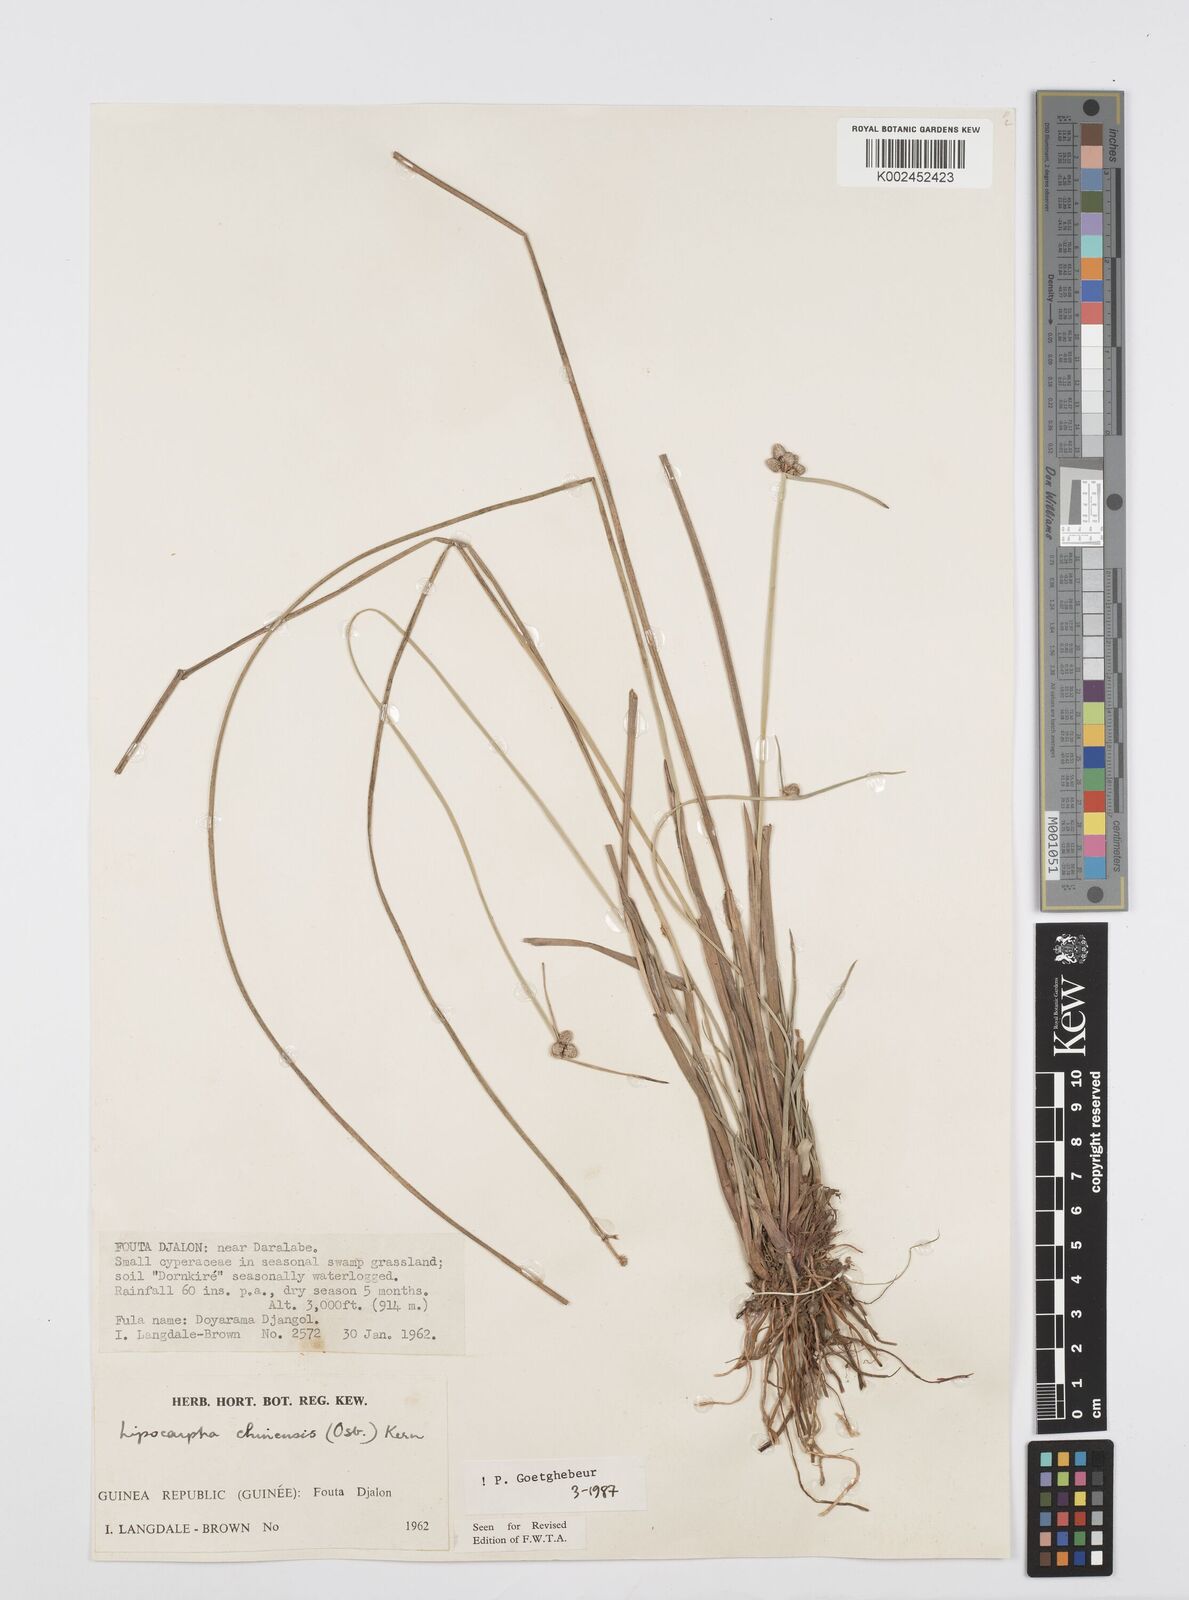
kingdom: Plantae
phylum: Tracheophyta
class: Liliopsida
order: Poales
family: Cyperaceae
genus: Cyperus
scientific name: Cyperus albescens
